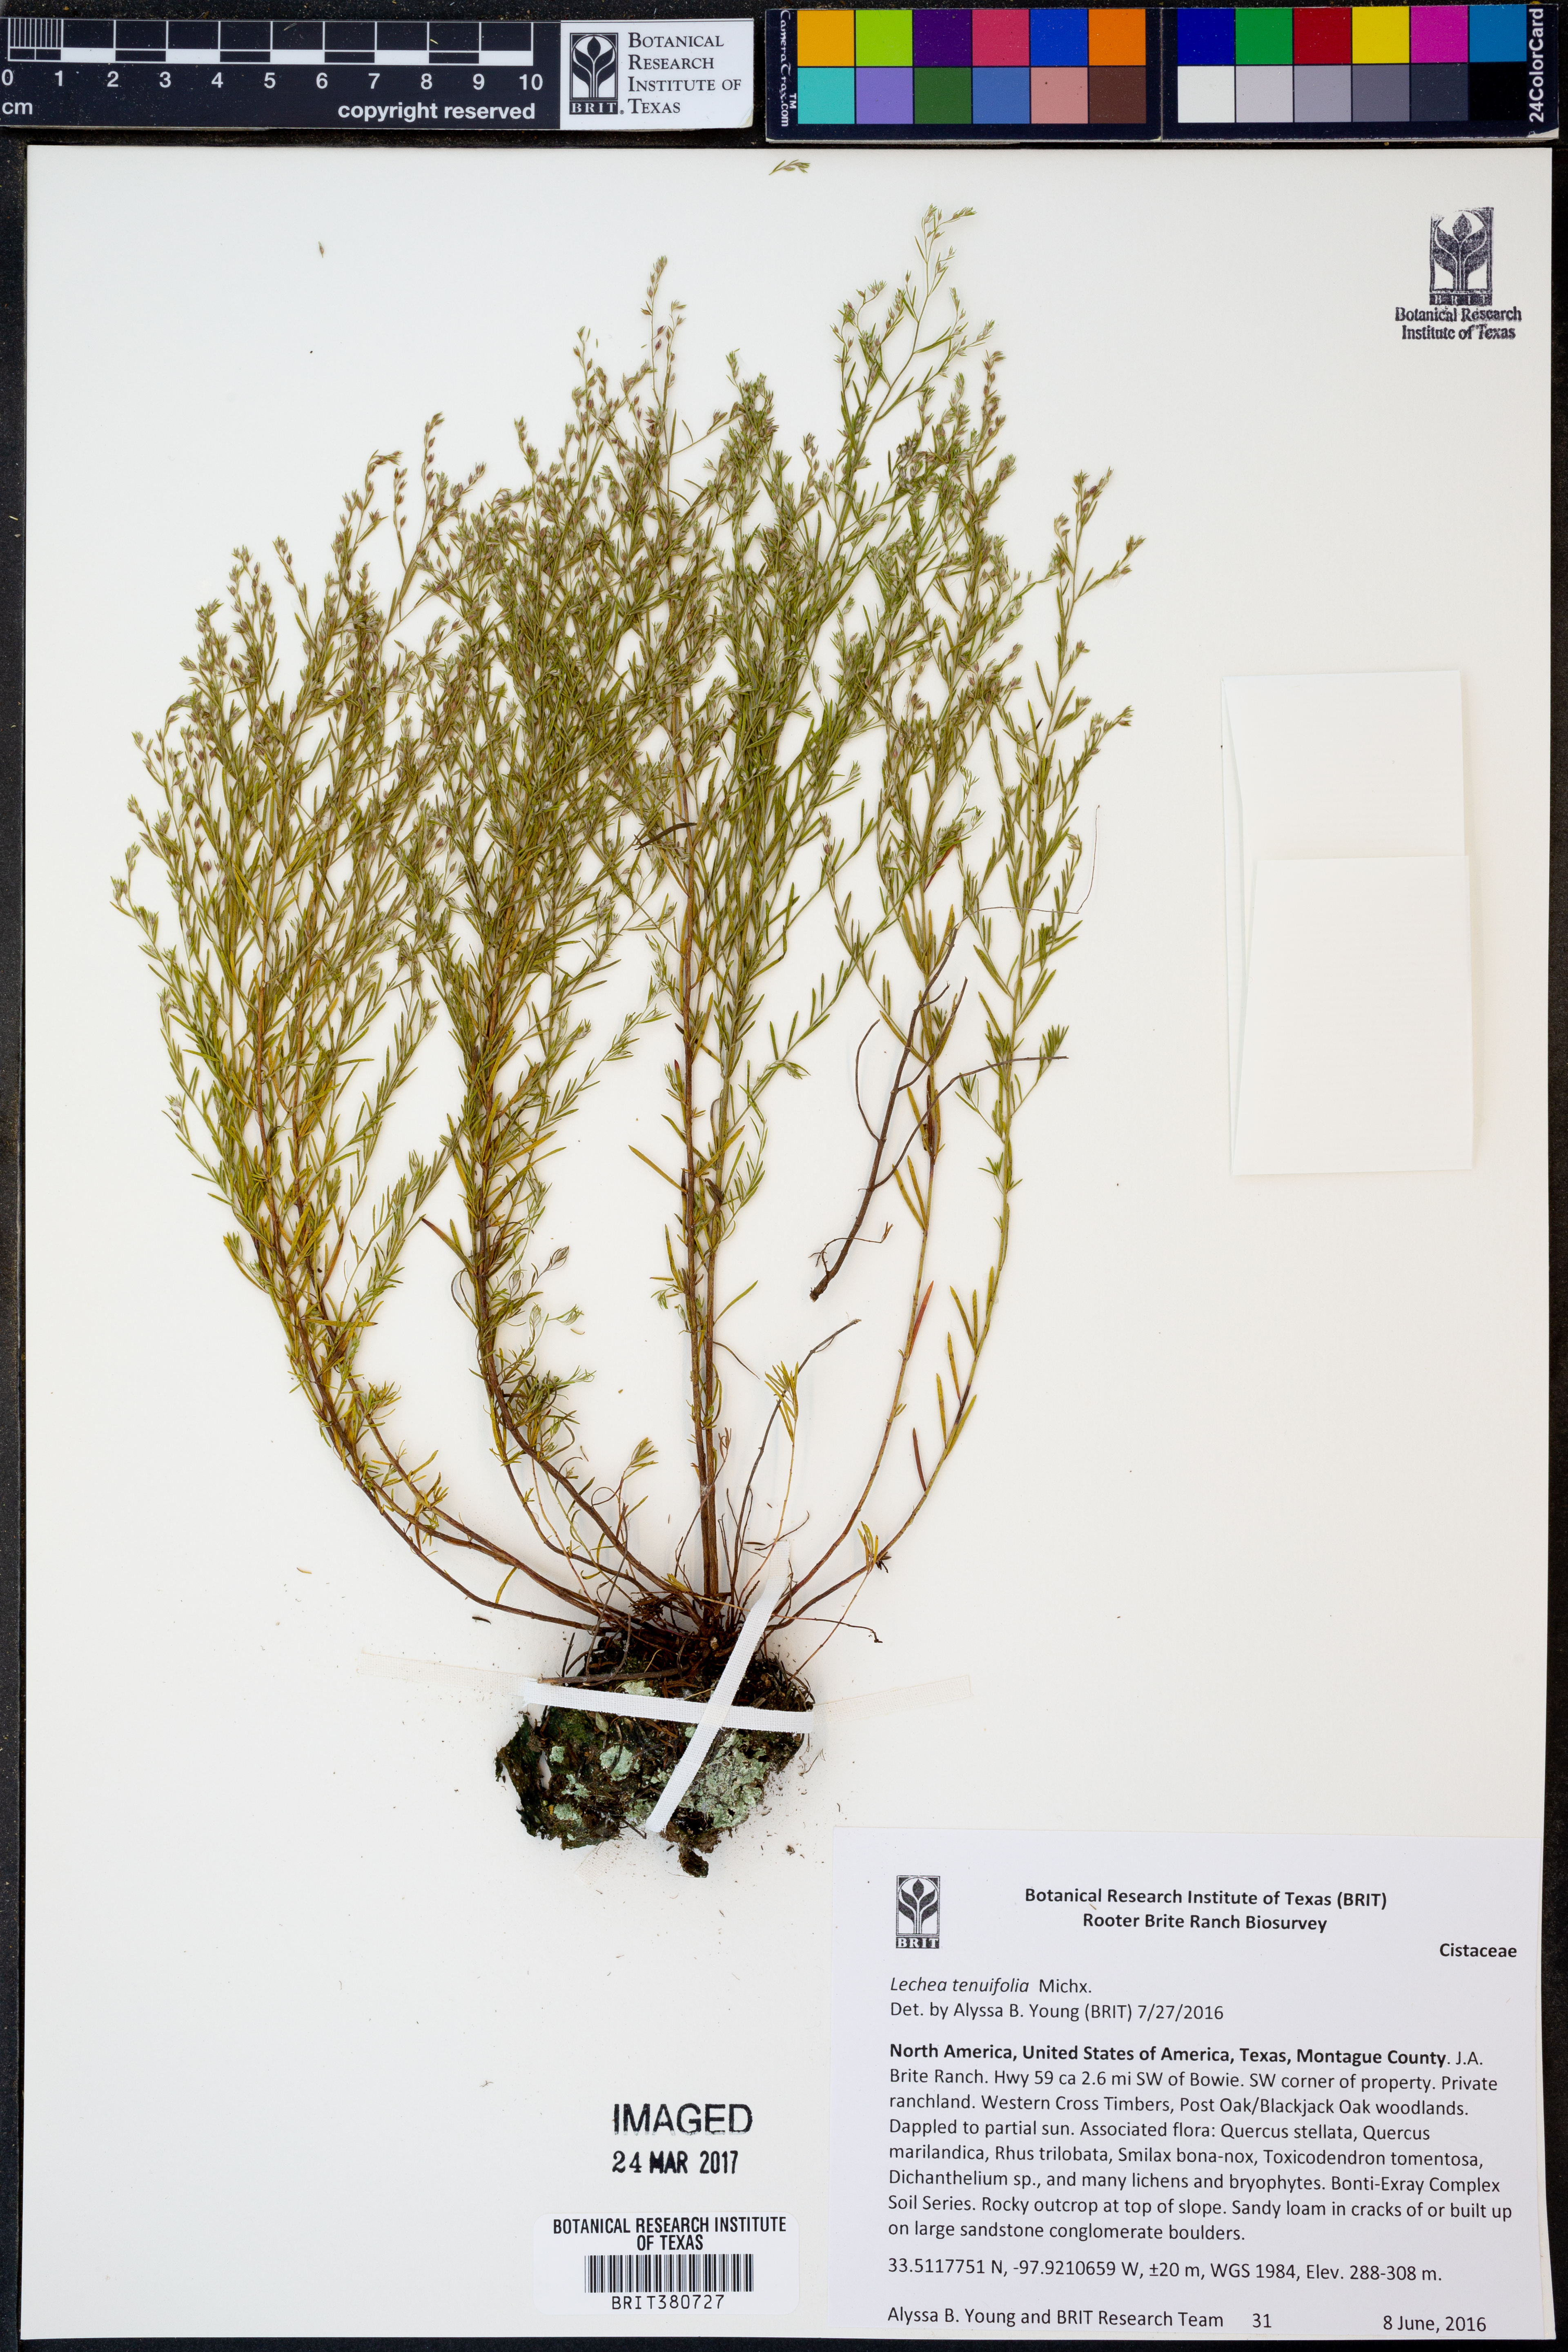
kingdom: Plantae
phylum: Tracheophyta
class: Magnoliopsida
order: Malvales
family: Cistaceae
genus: Lechea
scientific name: Lechea tenuifolia
